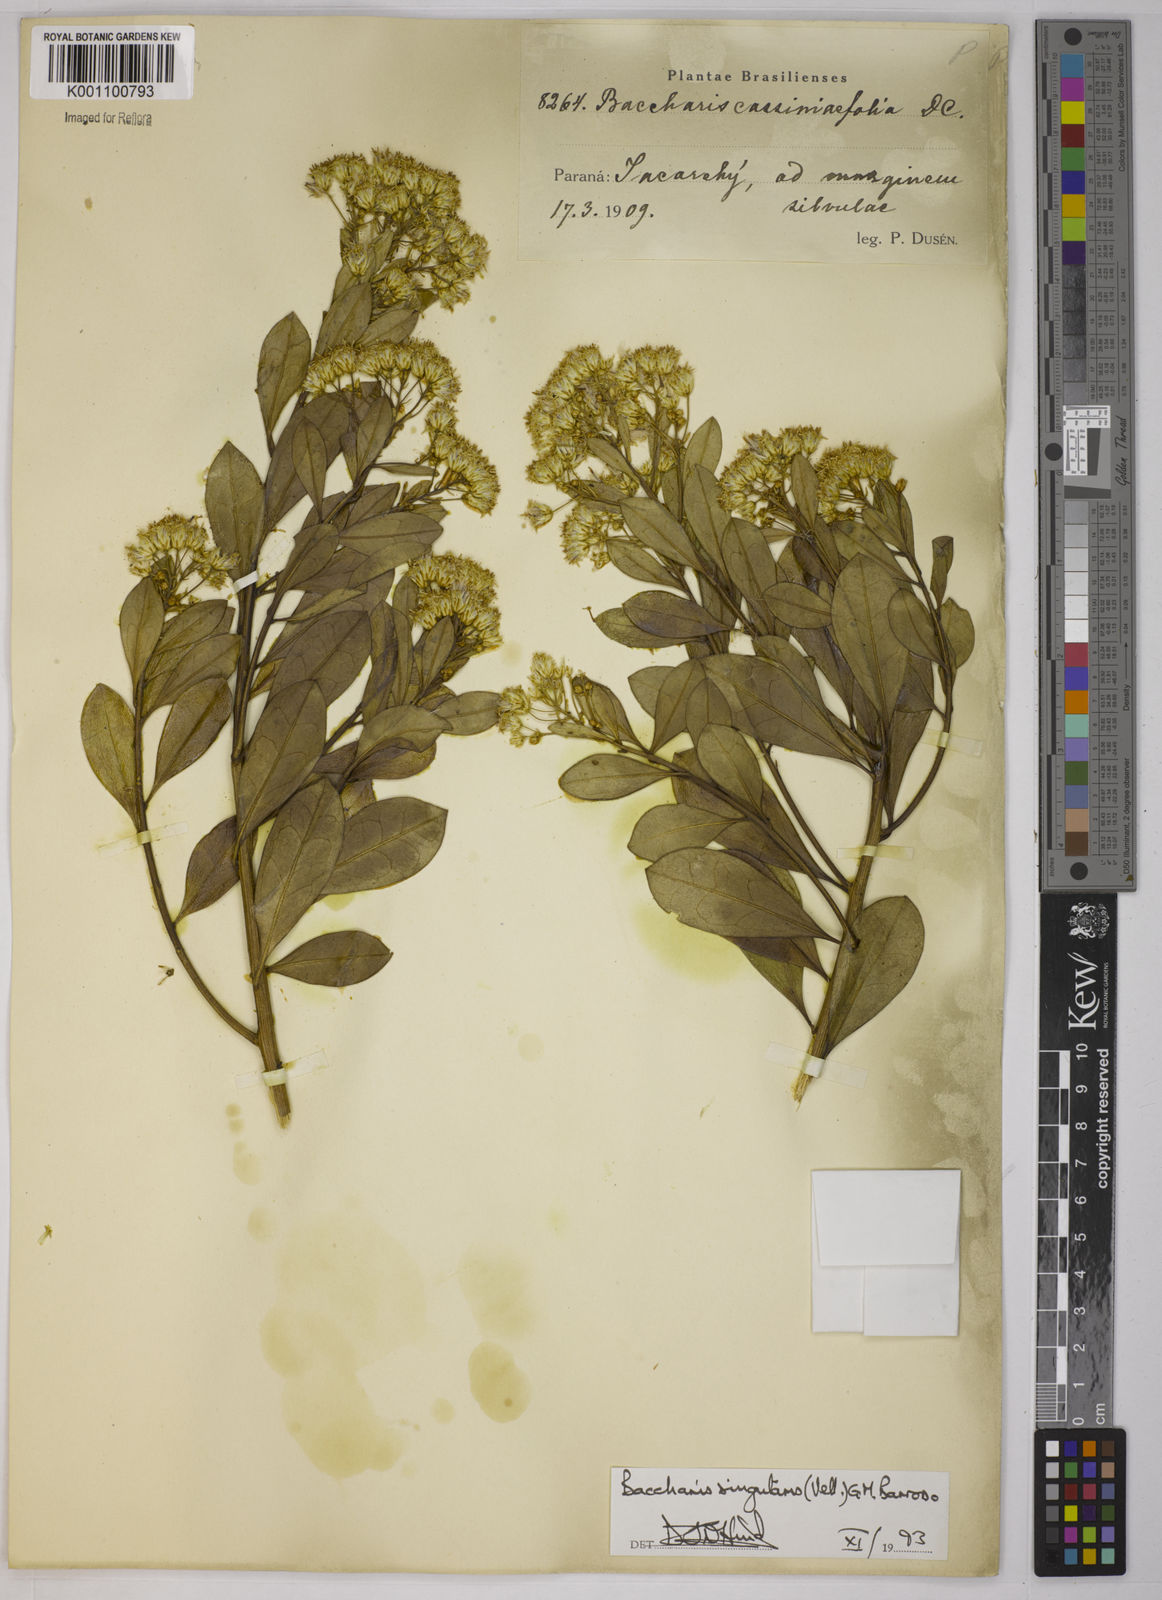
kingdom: Plantae
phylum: Tracheophyta
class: Magnoliopsida
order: Asterales
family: Asteraceae
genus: Baccharis
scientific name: Baccharis
